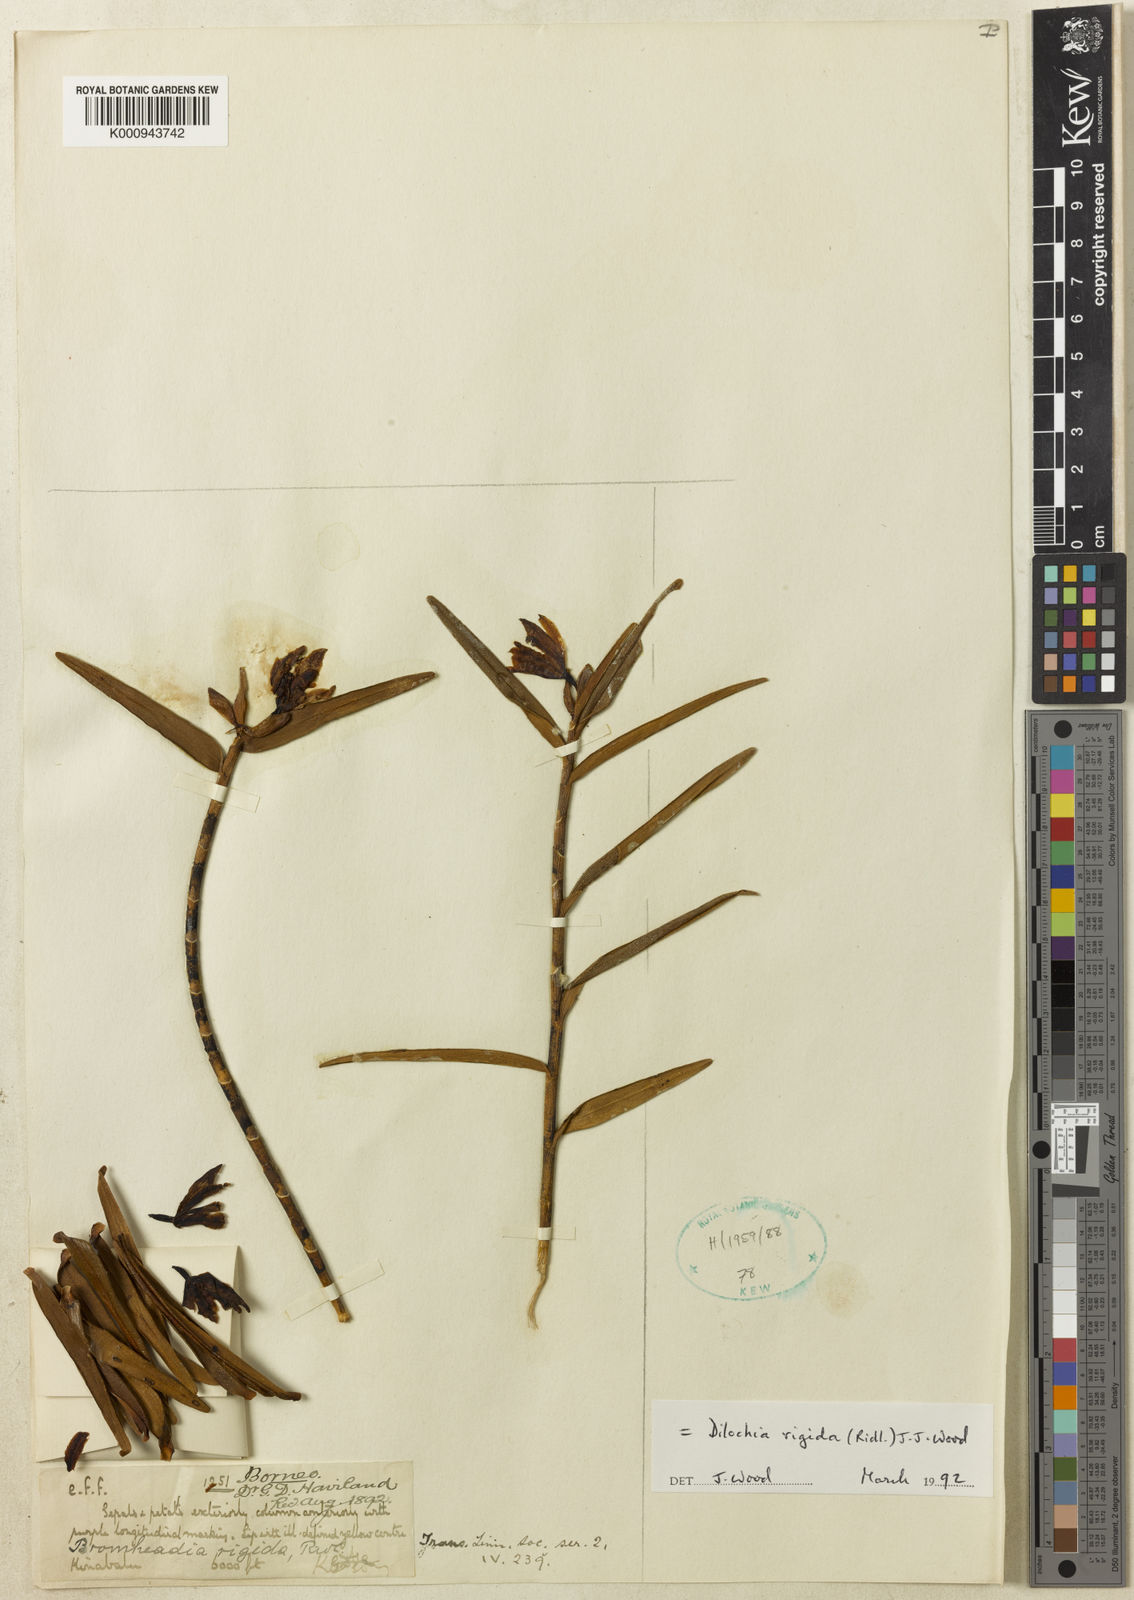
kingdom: Plantae
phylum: Tracheophyta
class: Liliopsida
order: Asparagales
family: Orchidaceae
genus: Dilochia
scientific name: Dilochia rigida
